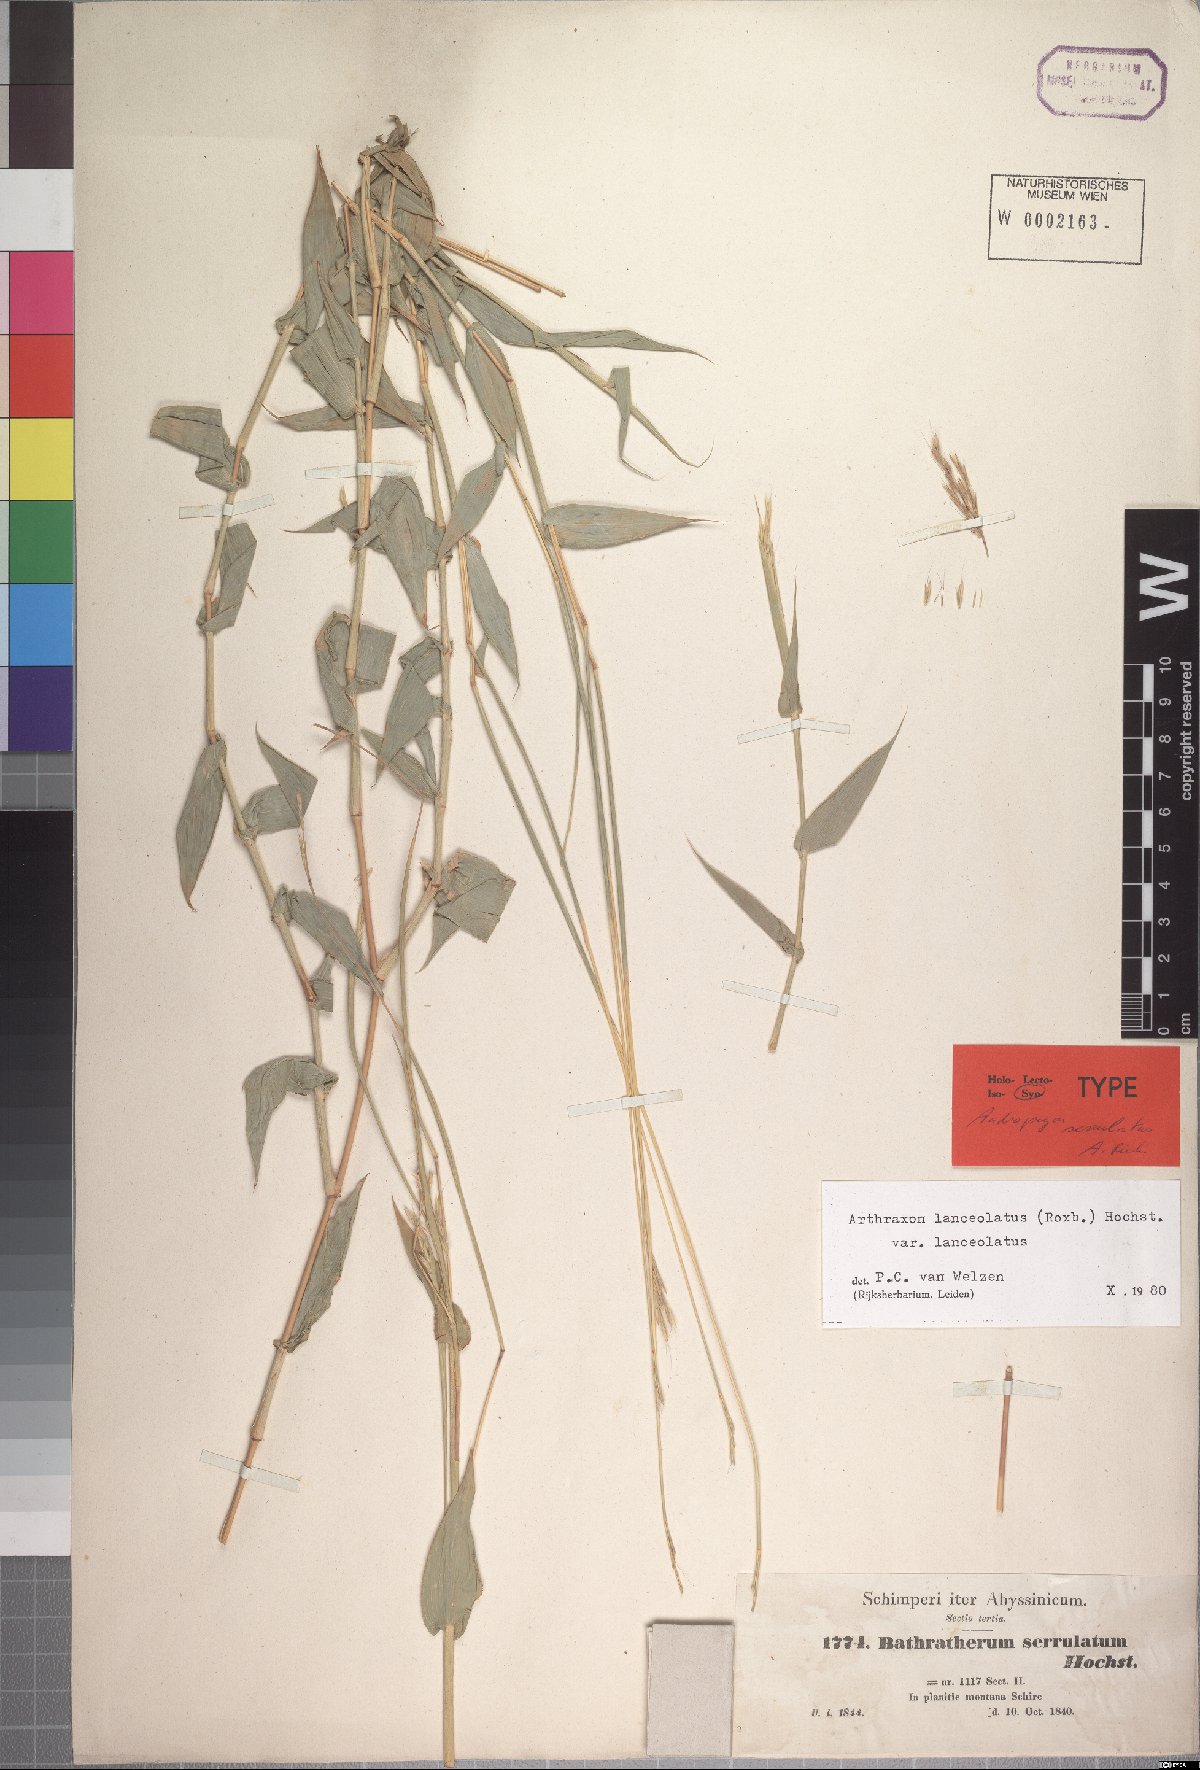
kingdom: Plantae
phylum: Tracheophyta
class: Liliopsida
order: Poales
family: Poaceae
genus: Arthraxon
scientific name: Arthraxon lanceolatus
